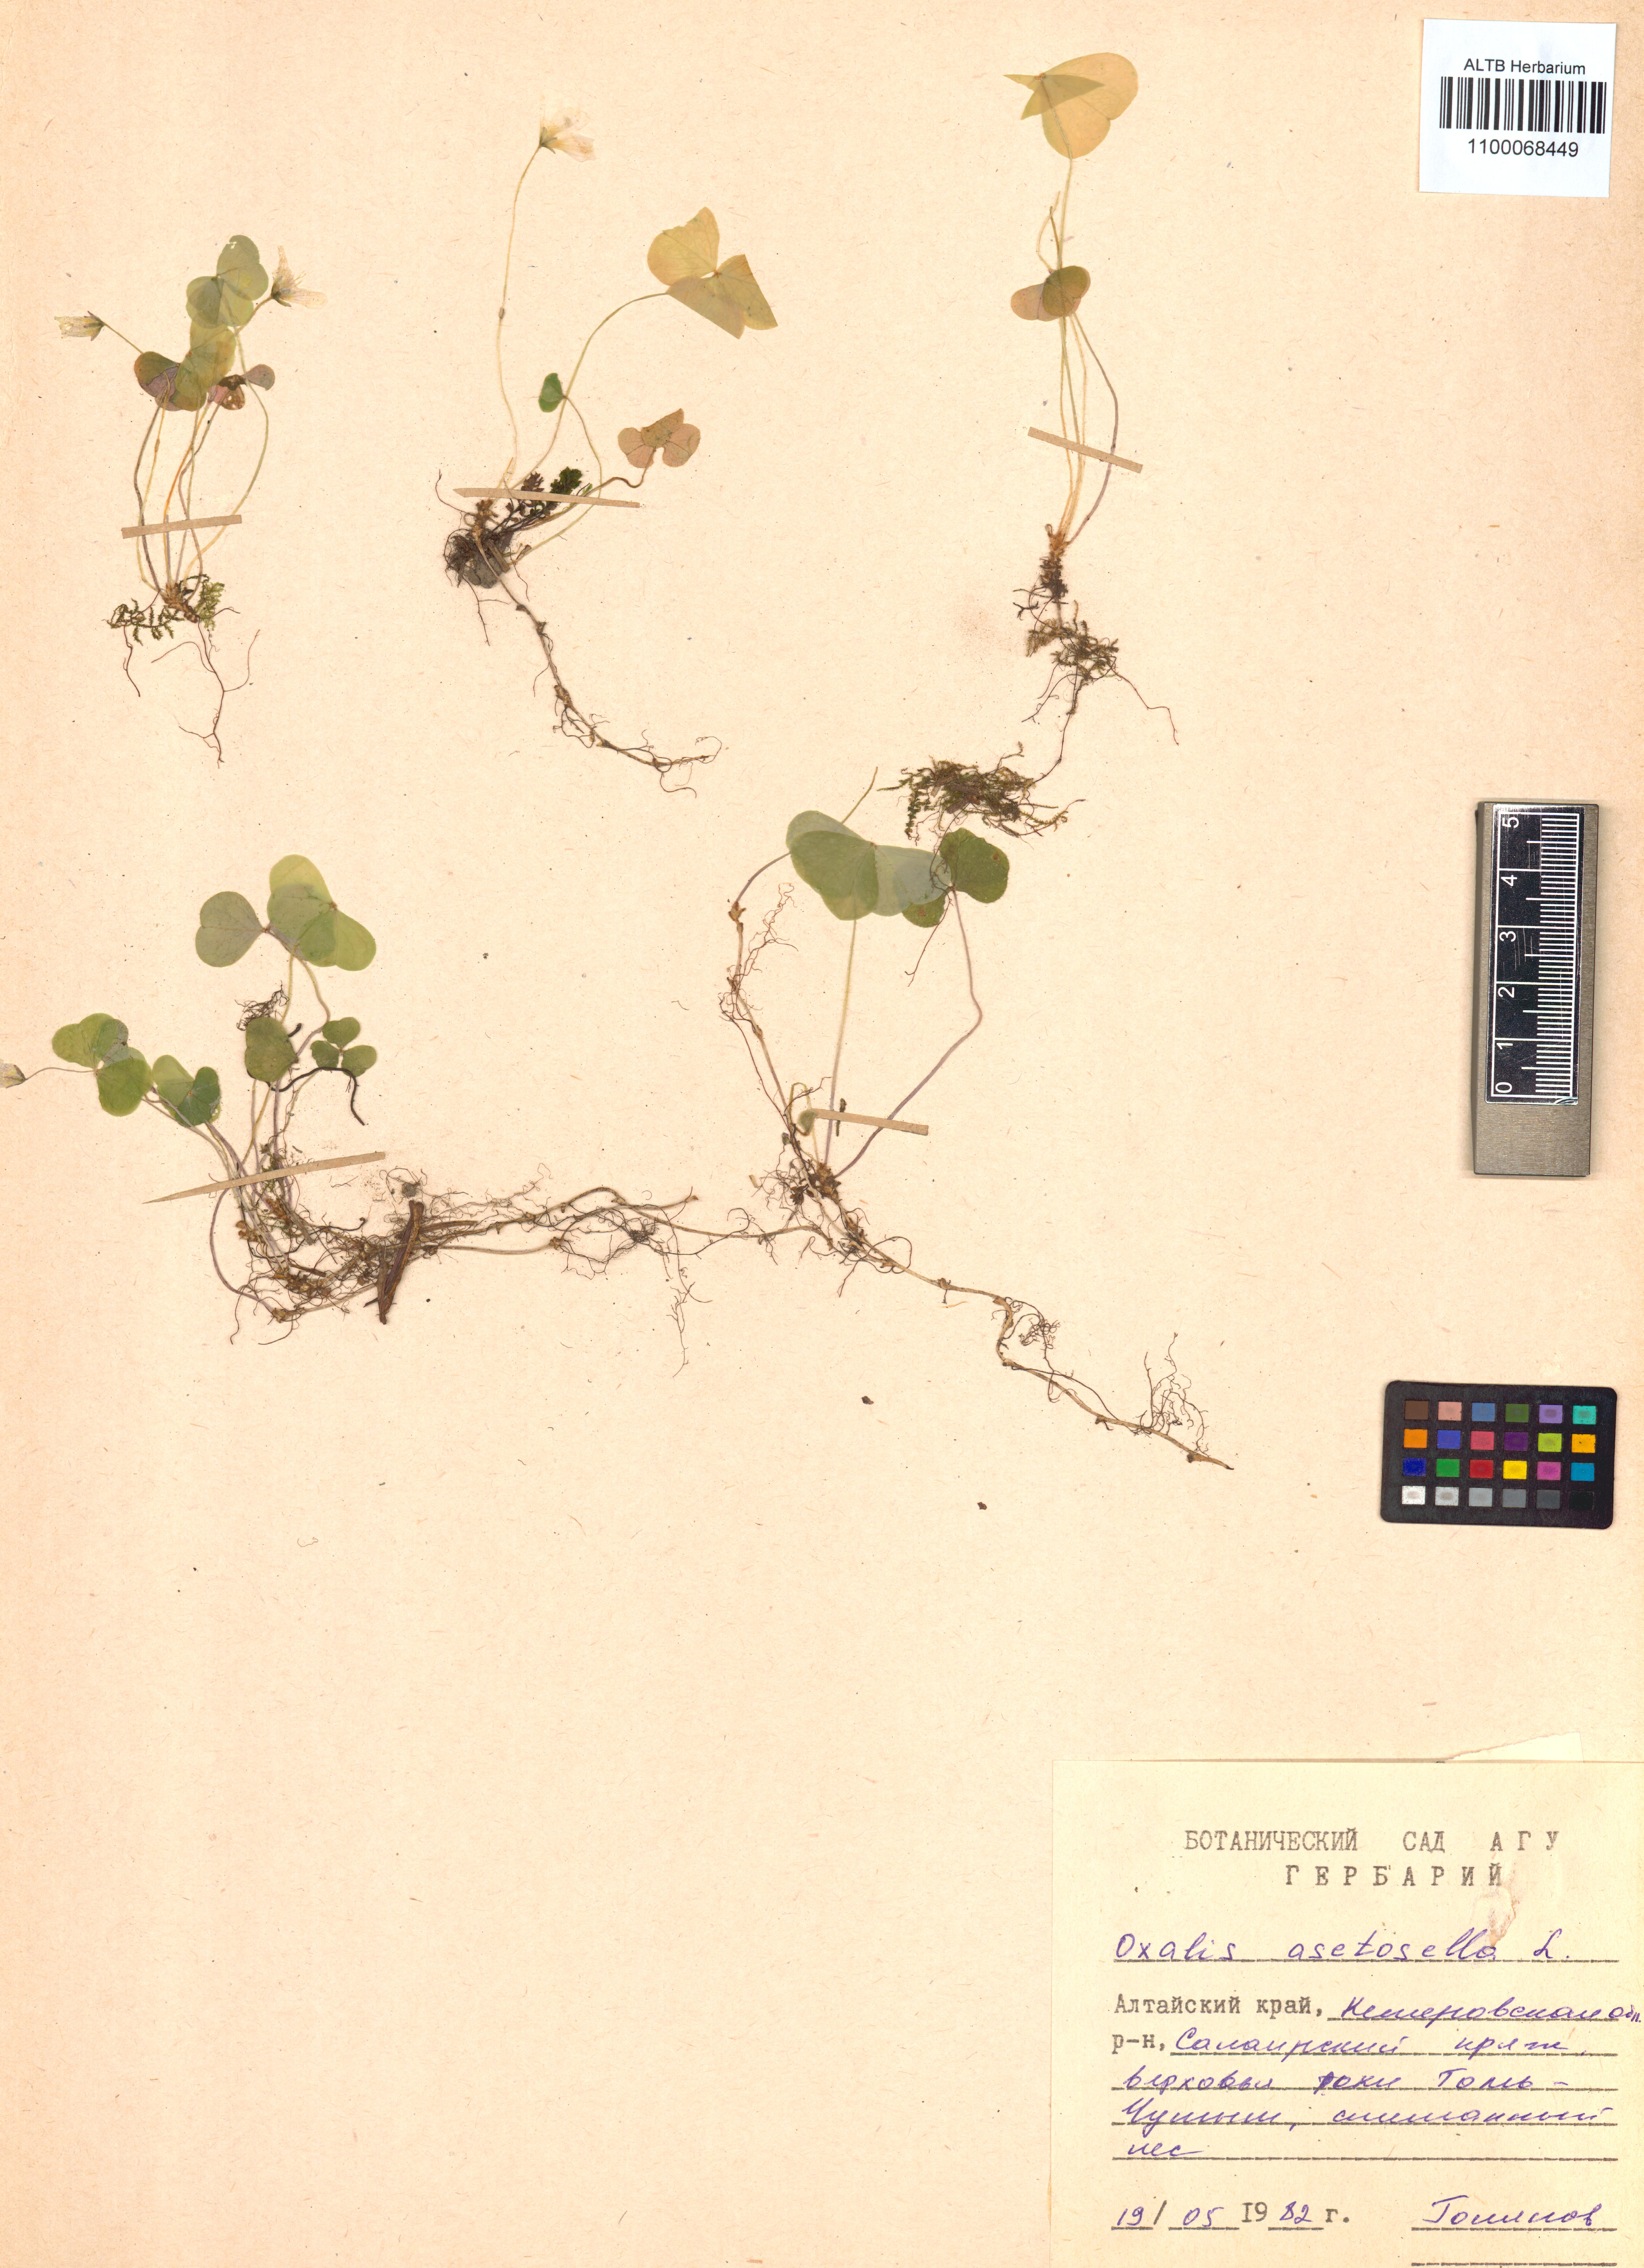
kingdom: Plantae
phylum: Tracheophyta
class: Magnoliopsida
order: Oxalidales
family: Oxalidaceae
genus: Oxalis
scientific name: Oxalis acetosella
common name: Wood-sorrel
